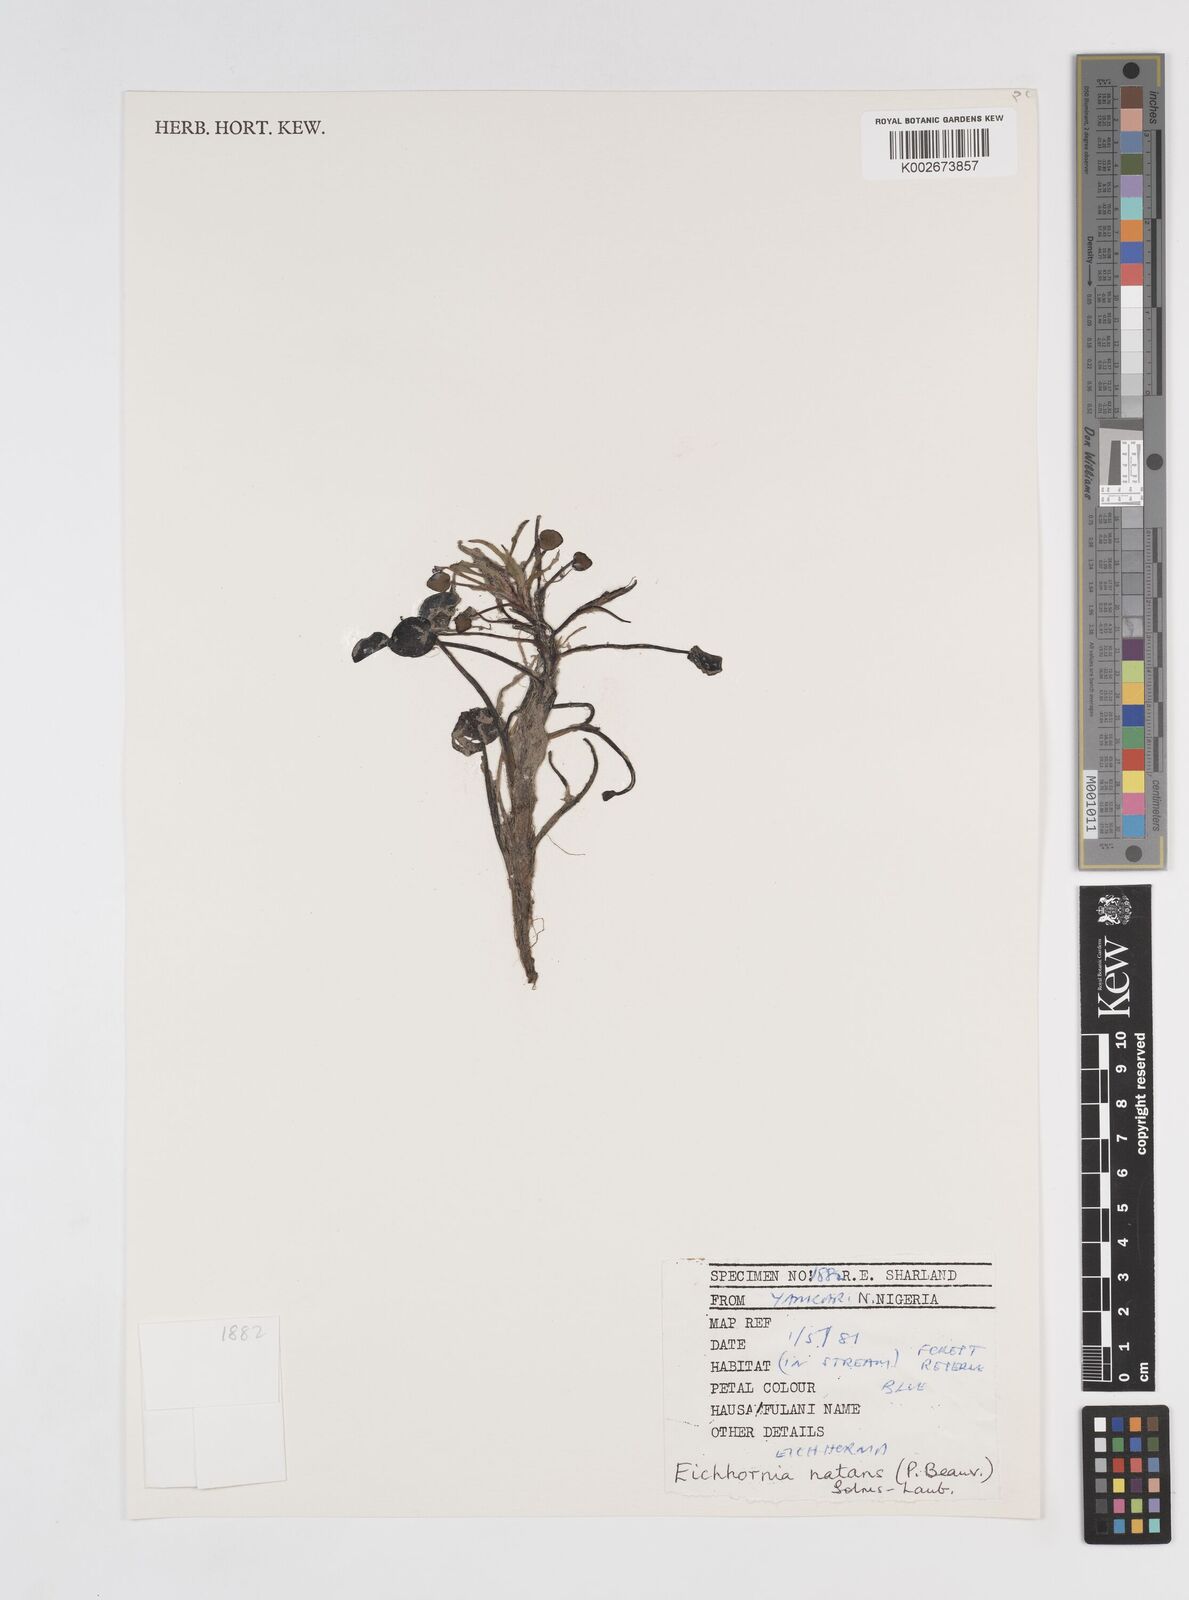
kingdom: Plantae
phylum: Tracheophyta
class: Liliopsida
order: Commelinales
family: Pontederiaceae
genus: Pontederia
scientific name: Pontederia natans
